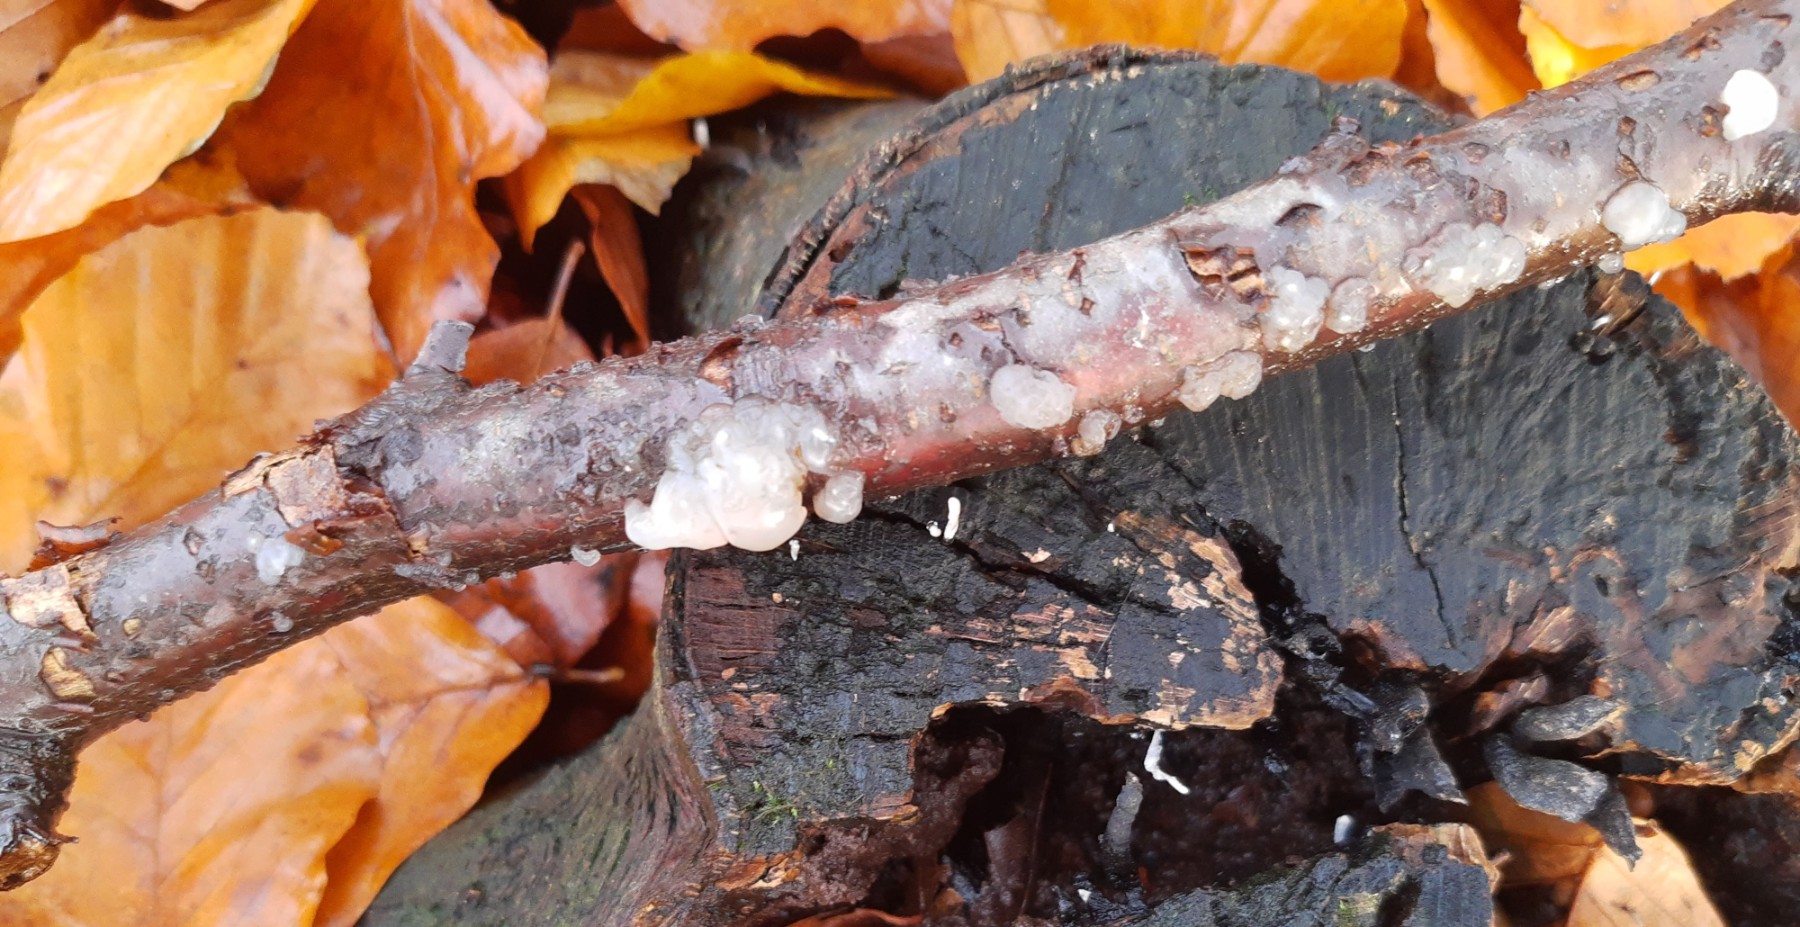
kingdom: Fungi
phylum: Basidiomycota
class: Agaricomycetes
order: Auriculariales
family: Hyaloriaceae
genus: Myxarium
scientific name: Myxarium nucleatum
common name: klar bævretop
